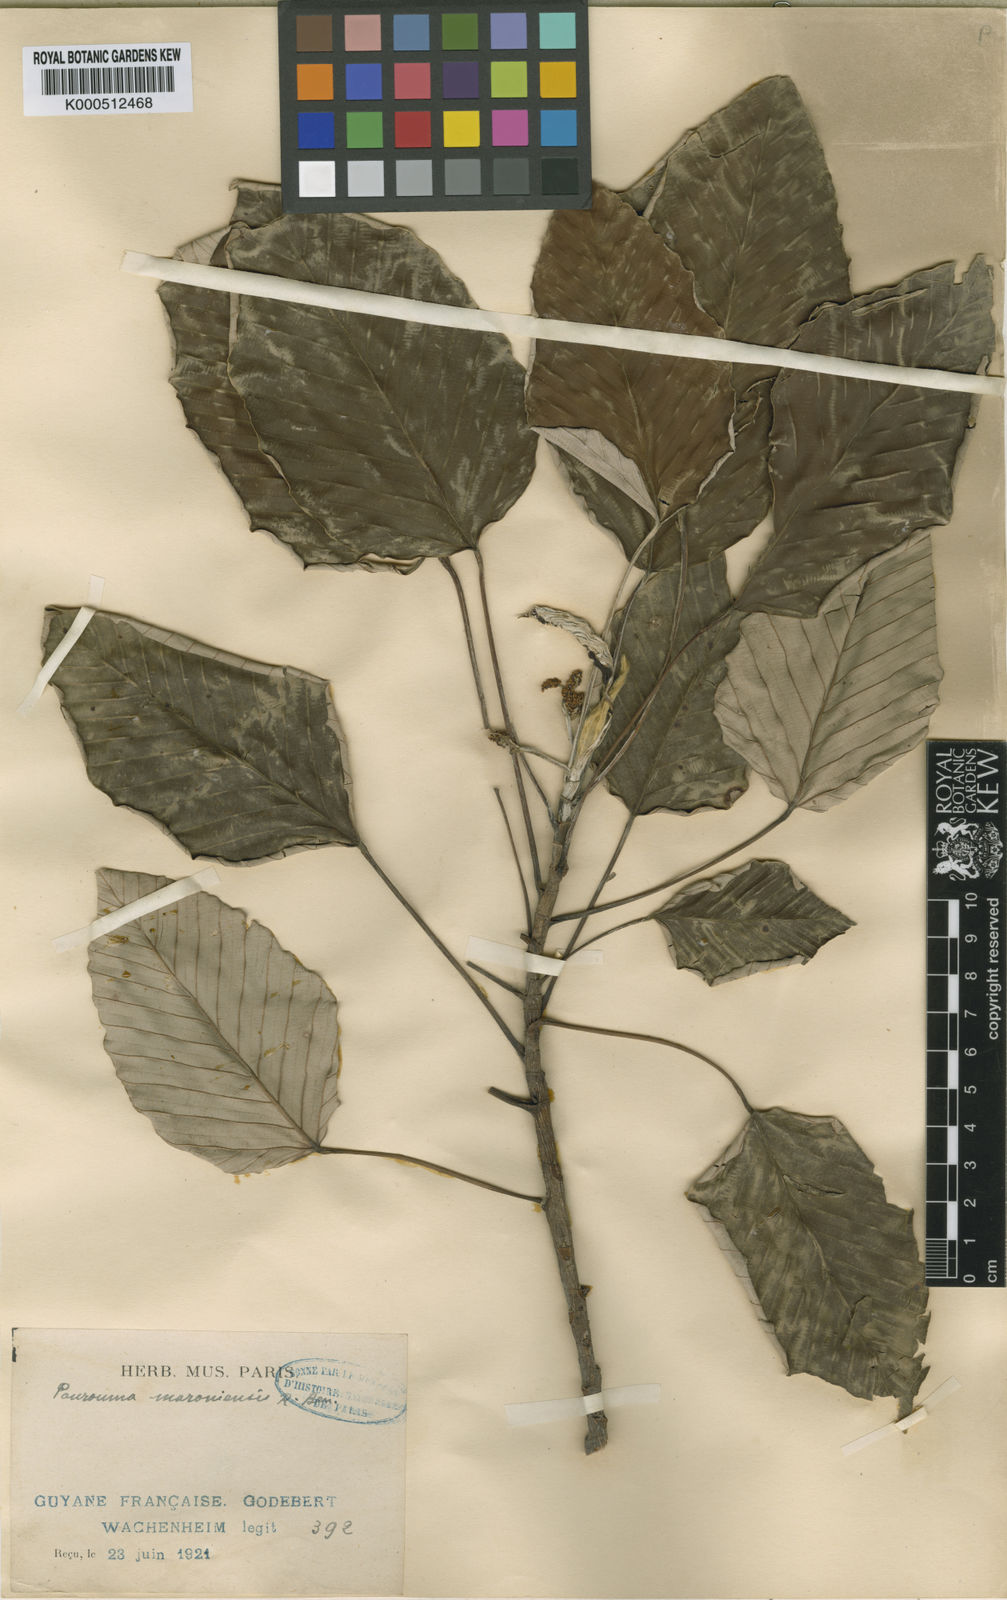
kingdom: Plantae
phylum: Tracheophyta
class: Magnoliopsida
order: Rosales
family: Urticaceae
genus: Pourouma
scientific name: Pourouma tomentosa
